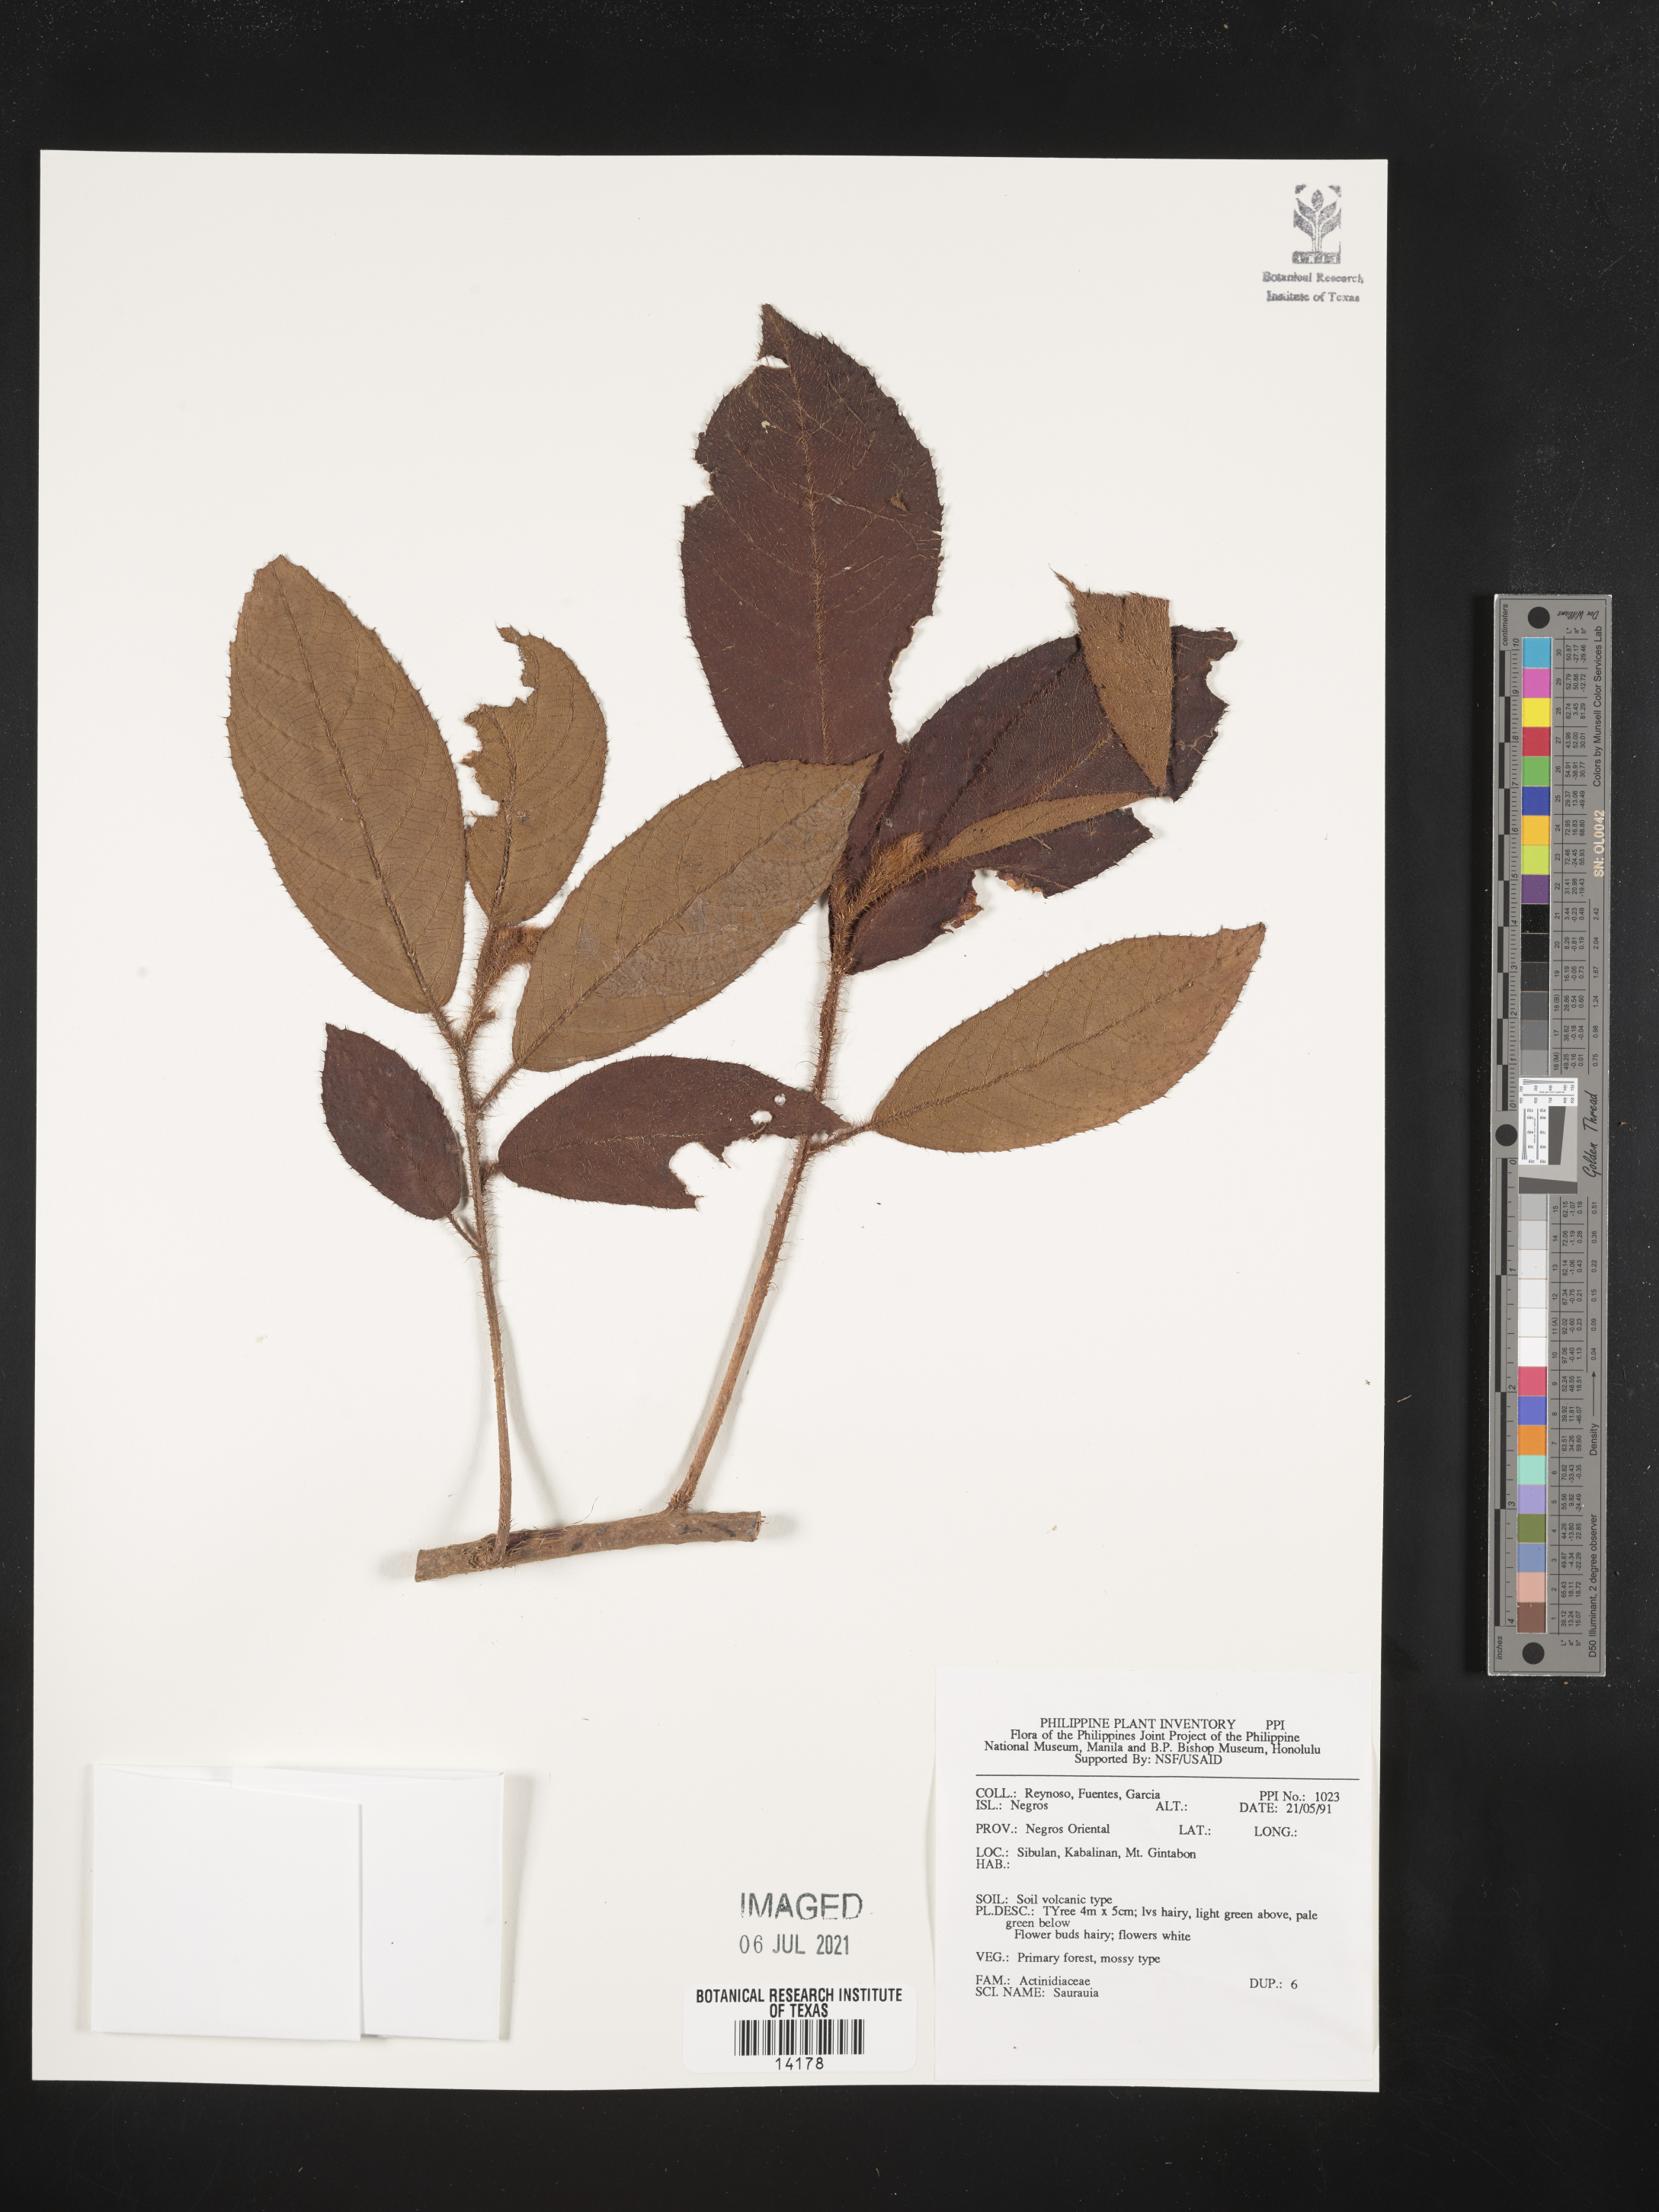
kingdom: Plantae
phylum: Tracheophyta
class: Magnoliopsida
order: Ericales
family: Actinidiaceae
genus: Saurauia
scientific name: Saurauia
